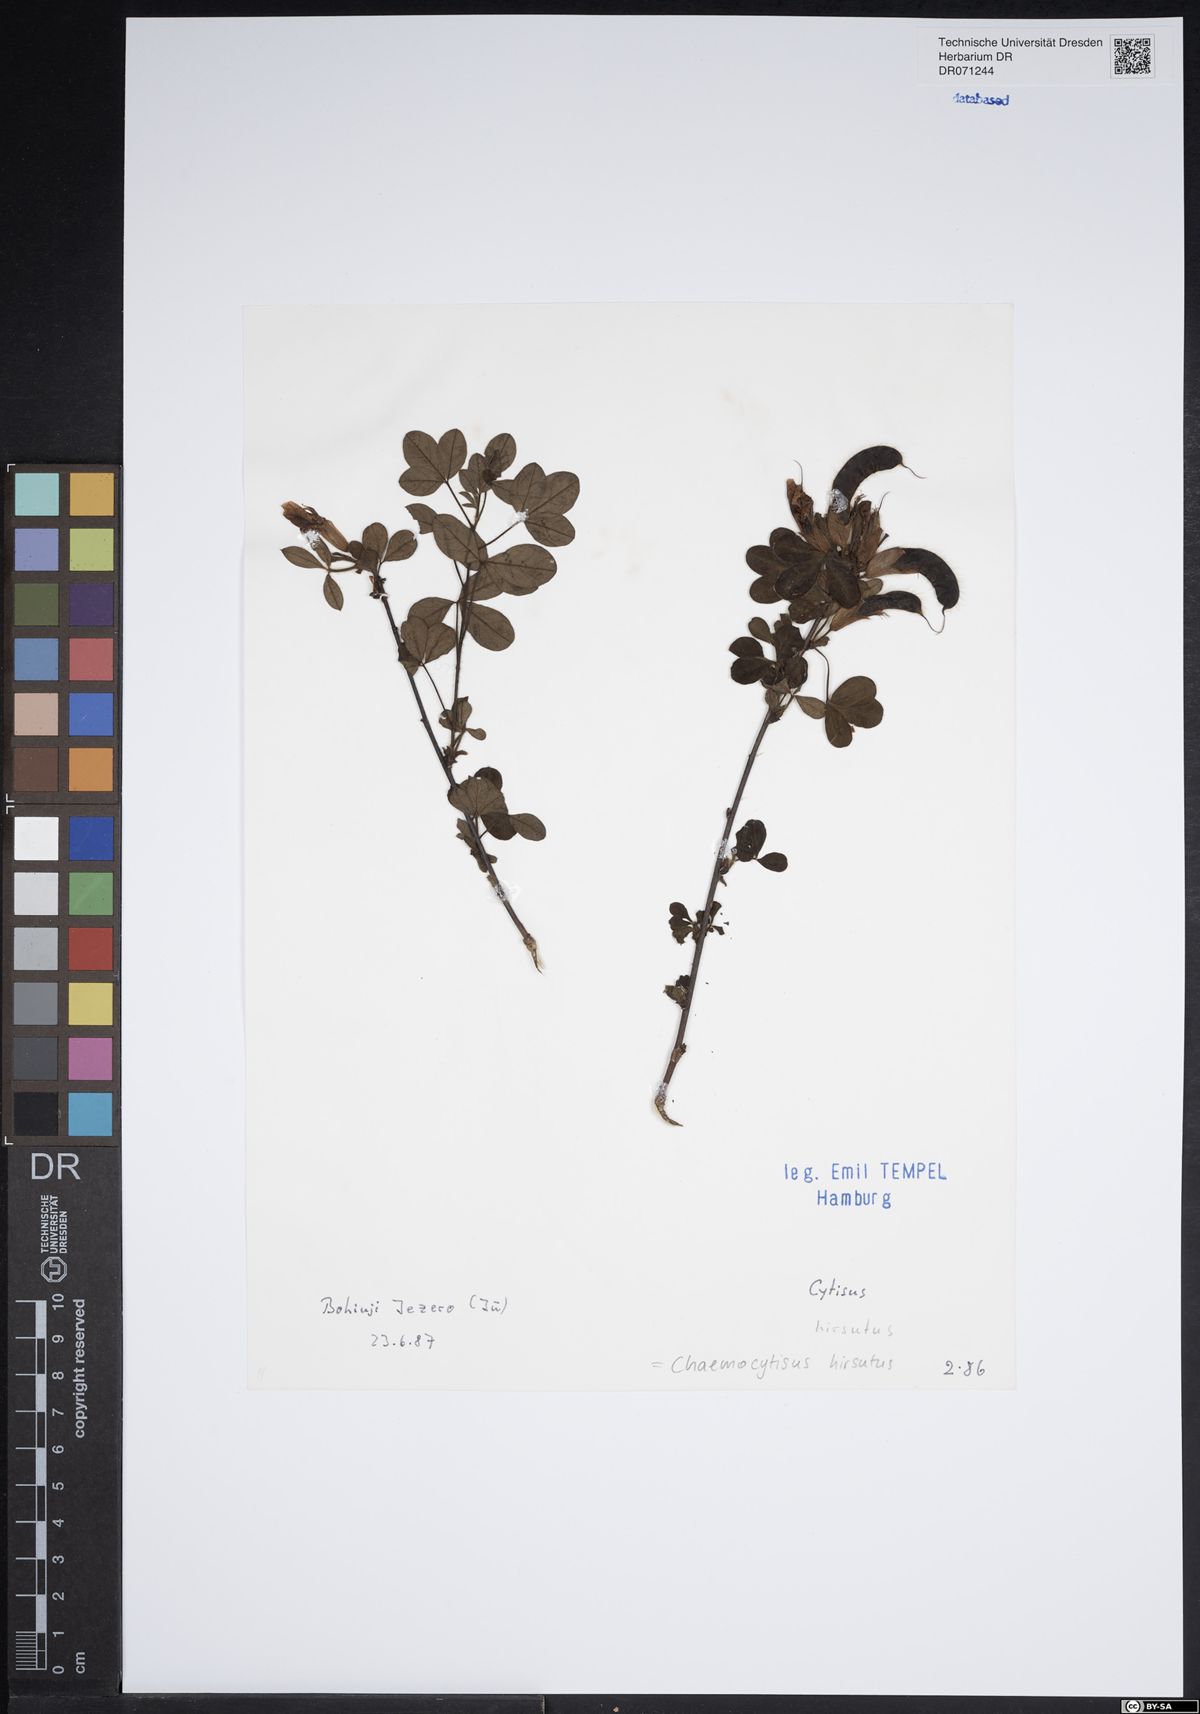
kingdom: Plantae
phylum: Tracheophyta
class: Magnoliopsida
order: Fabales
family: Fabaceae
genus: Chamaecytisus
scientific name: Chamaecytisus hirsutus
